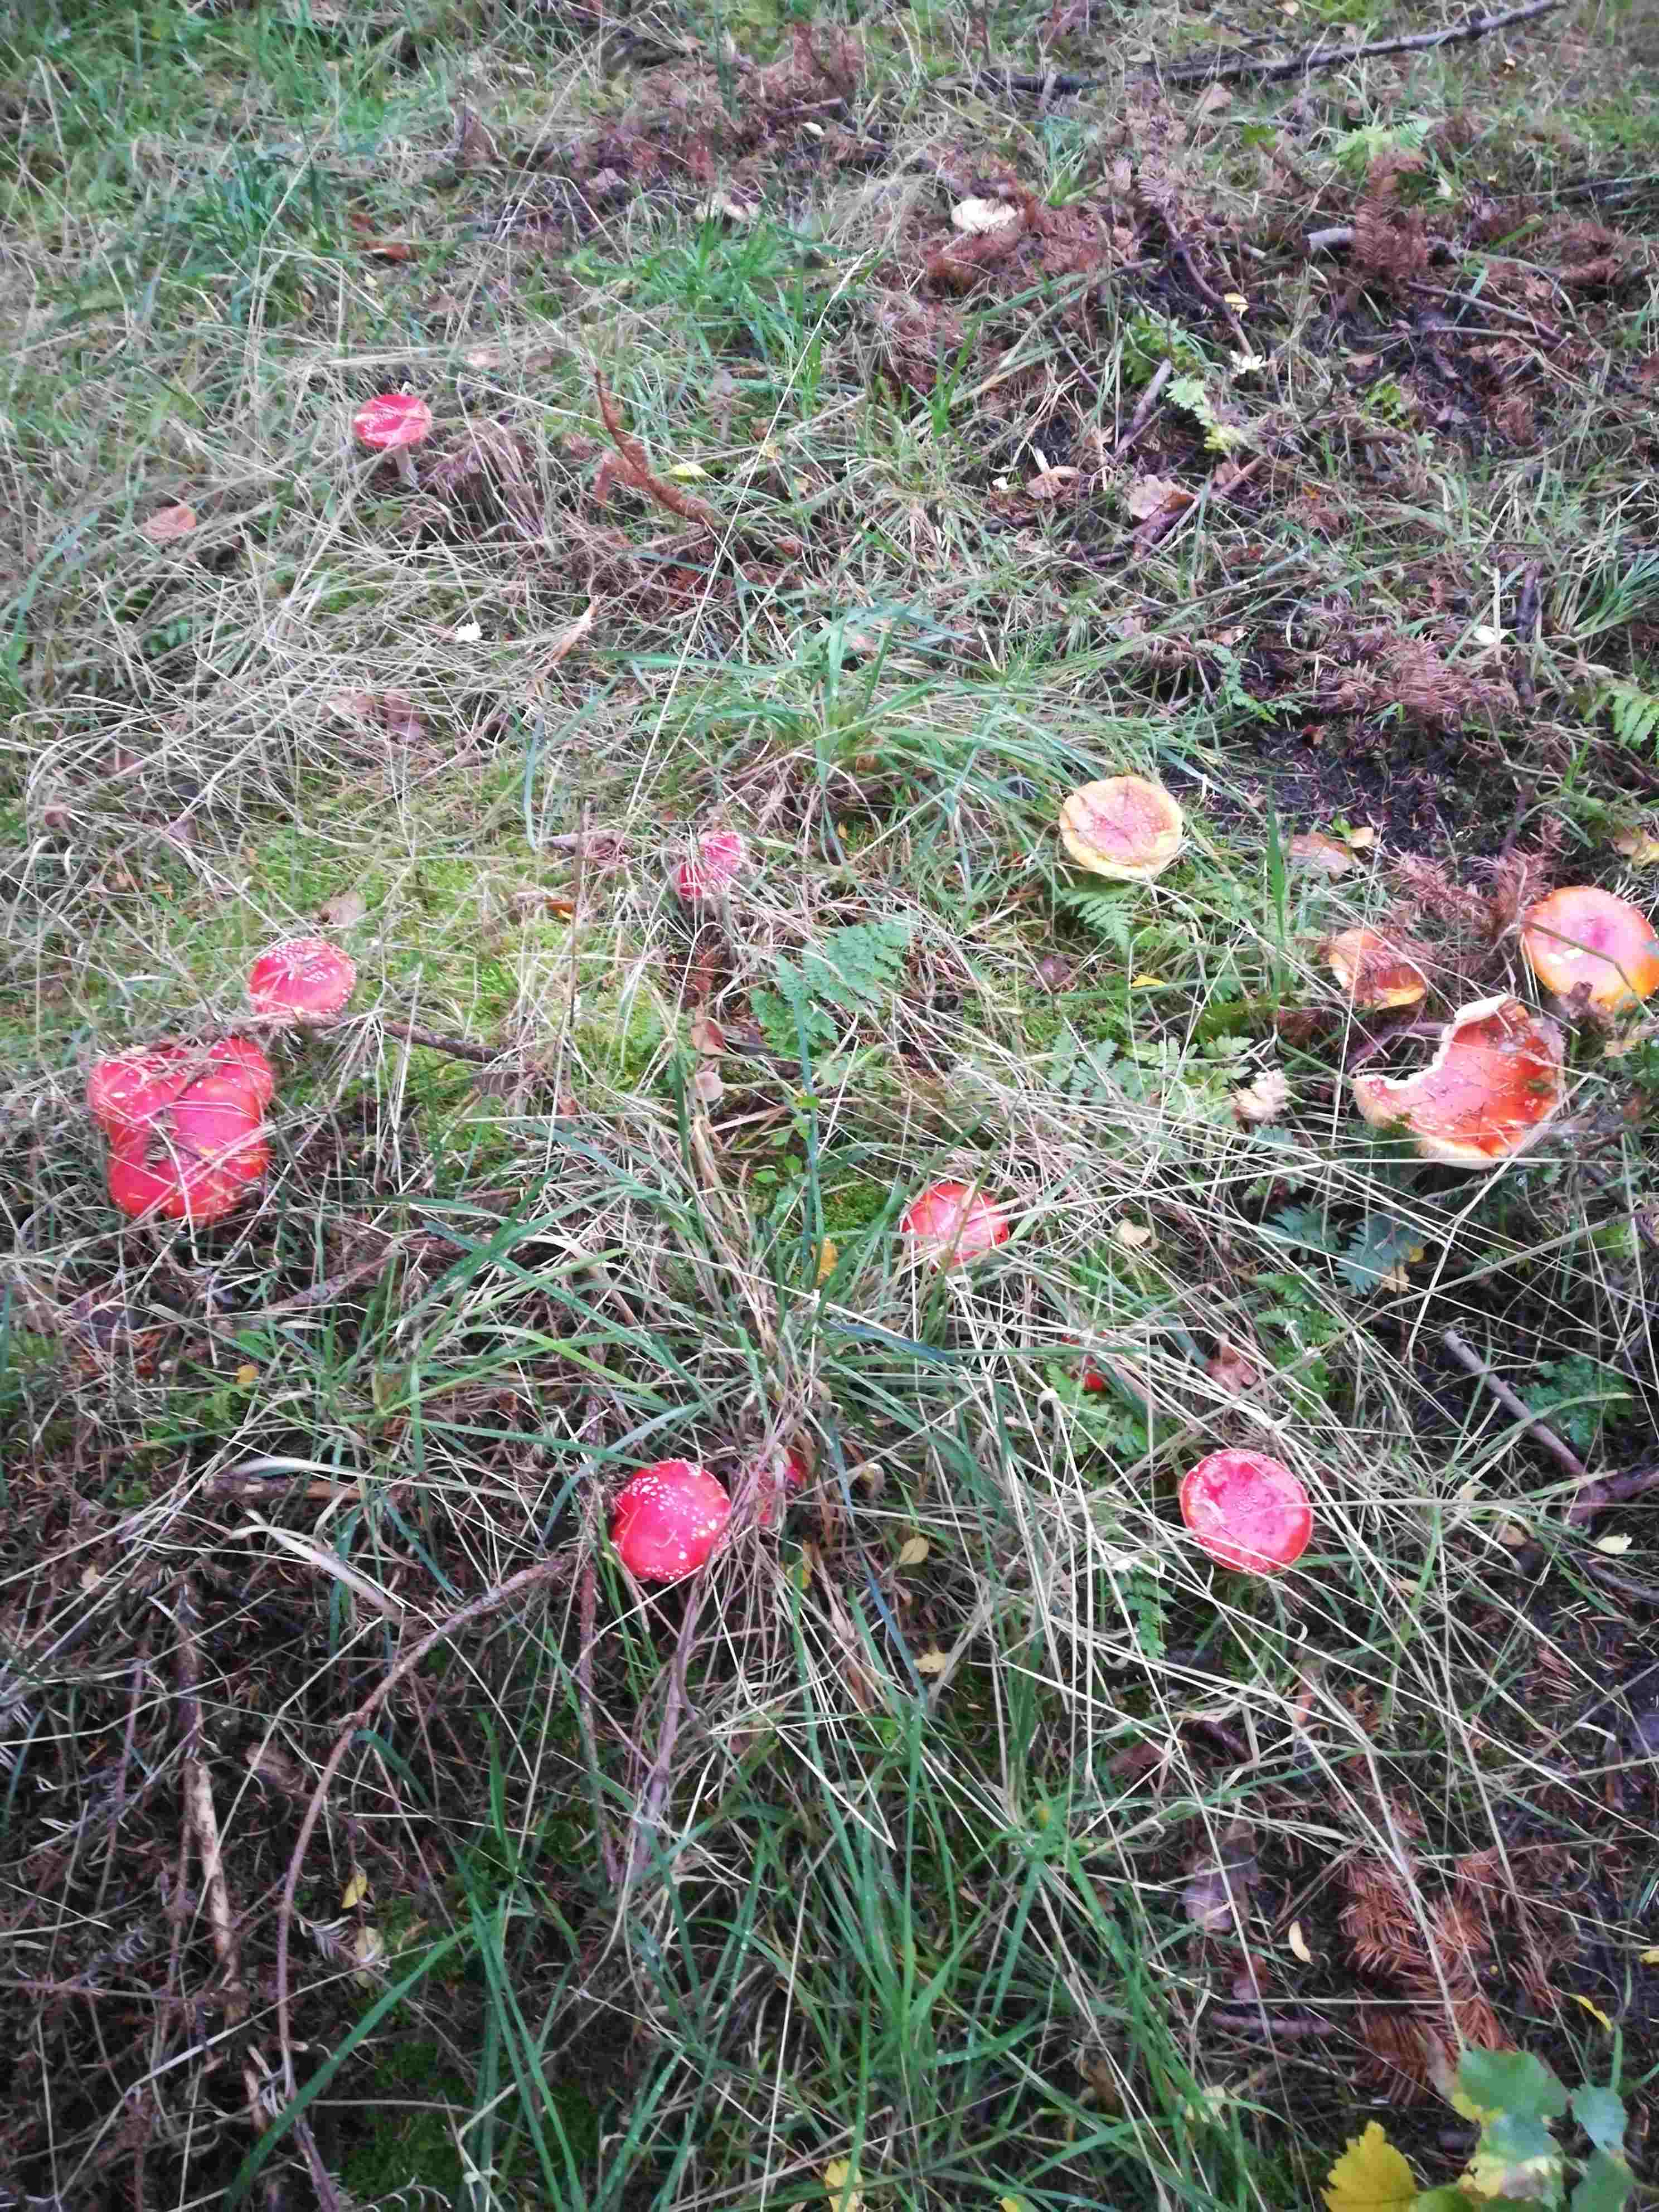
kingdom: Fungi
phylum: Basidiomycota
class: Agaricomycetes
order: Agaricales
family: Amanitaceae
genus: Amanita
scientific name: Amanita muscaria
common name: rød fluesvamp
